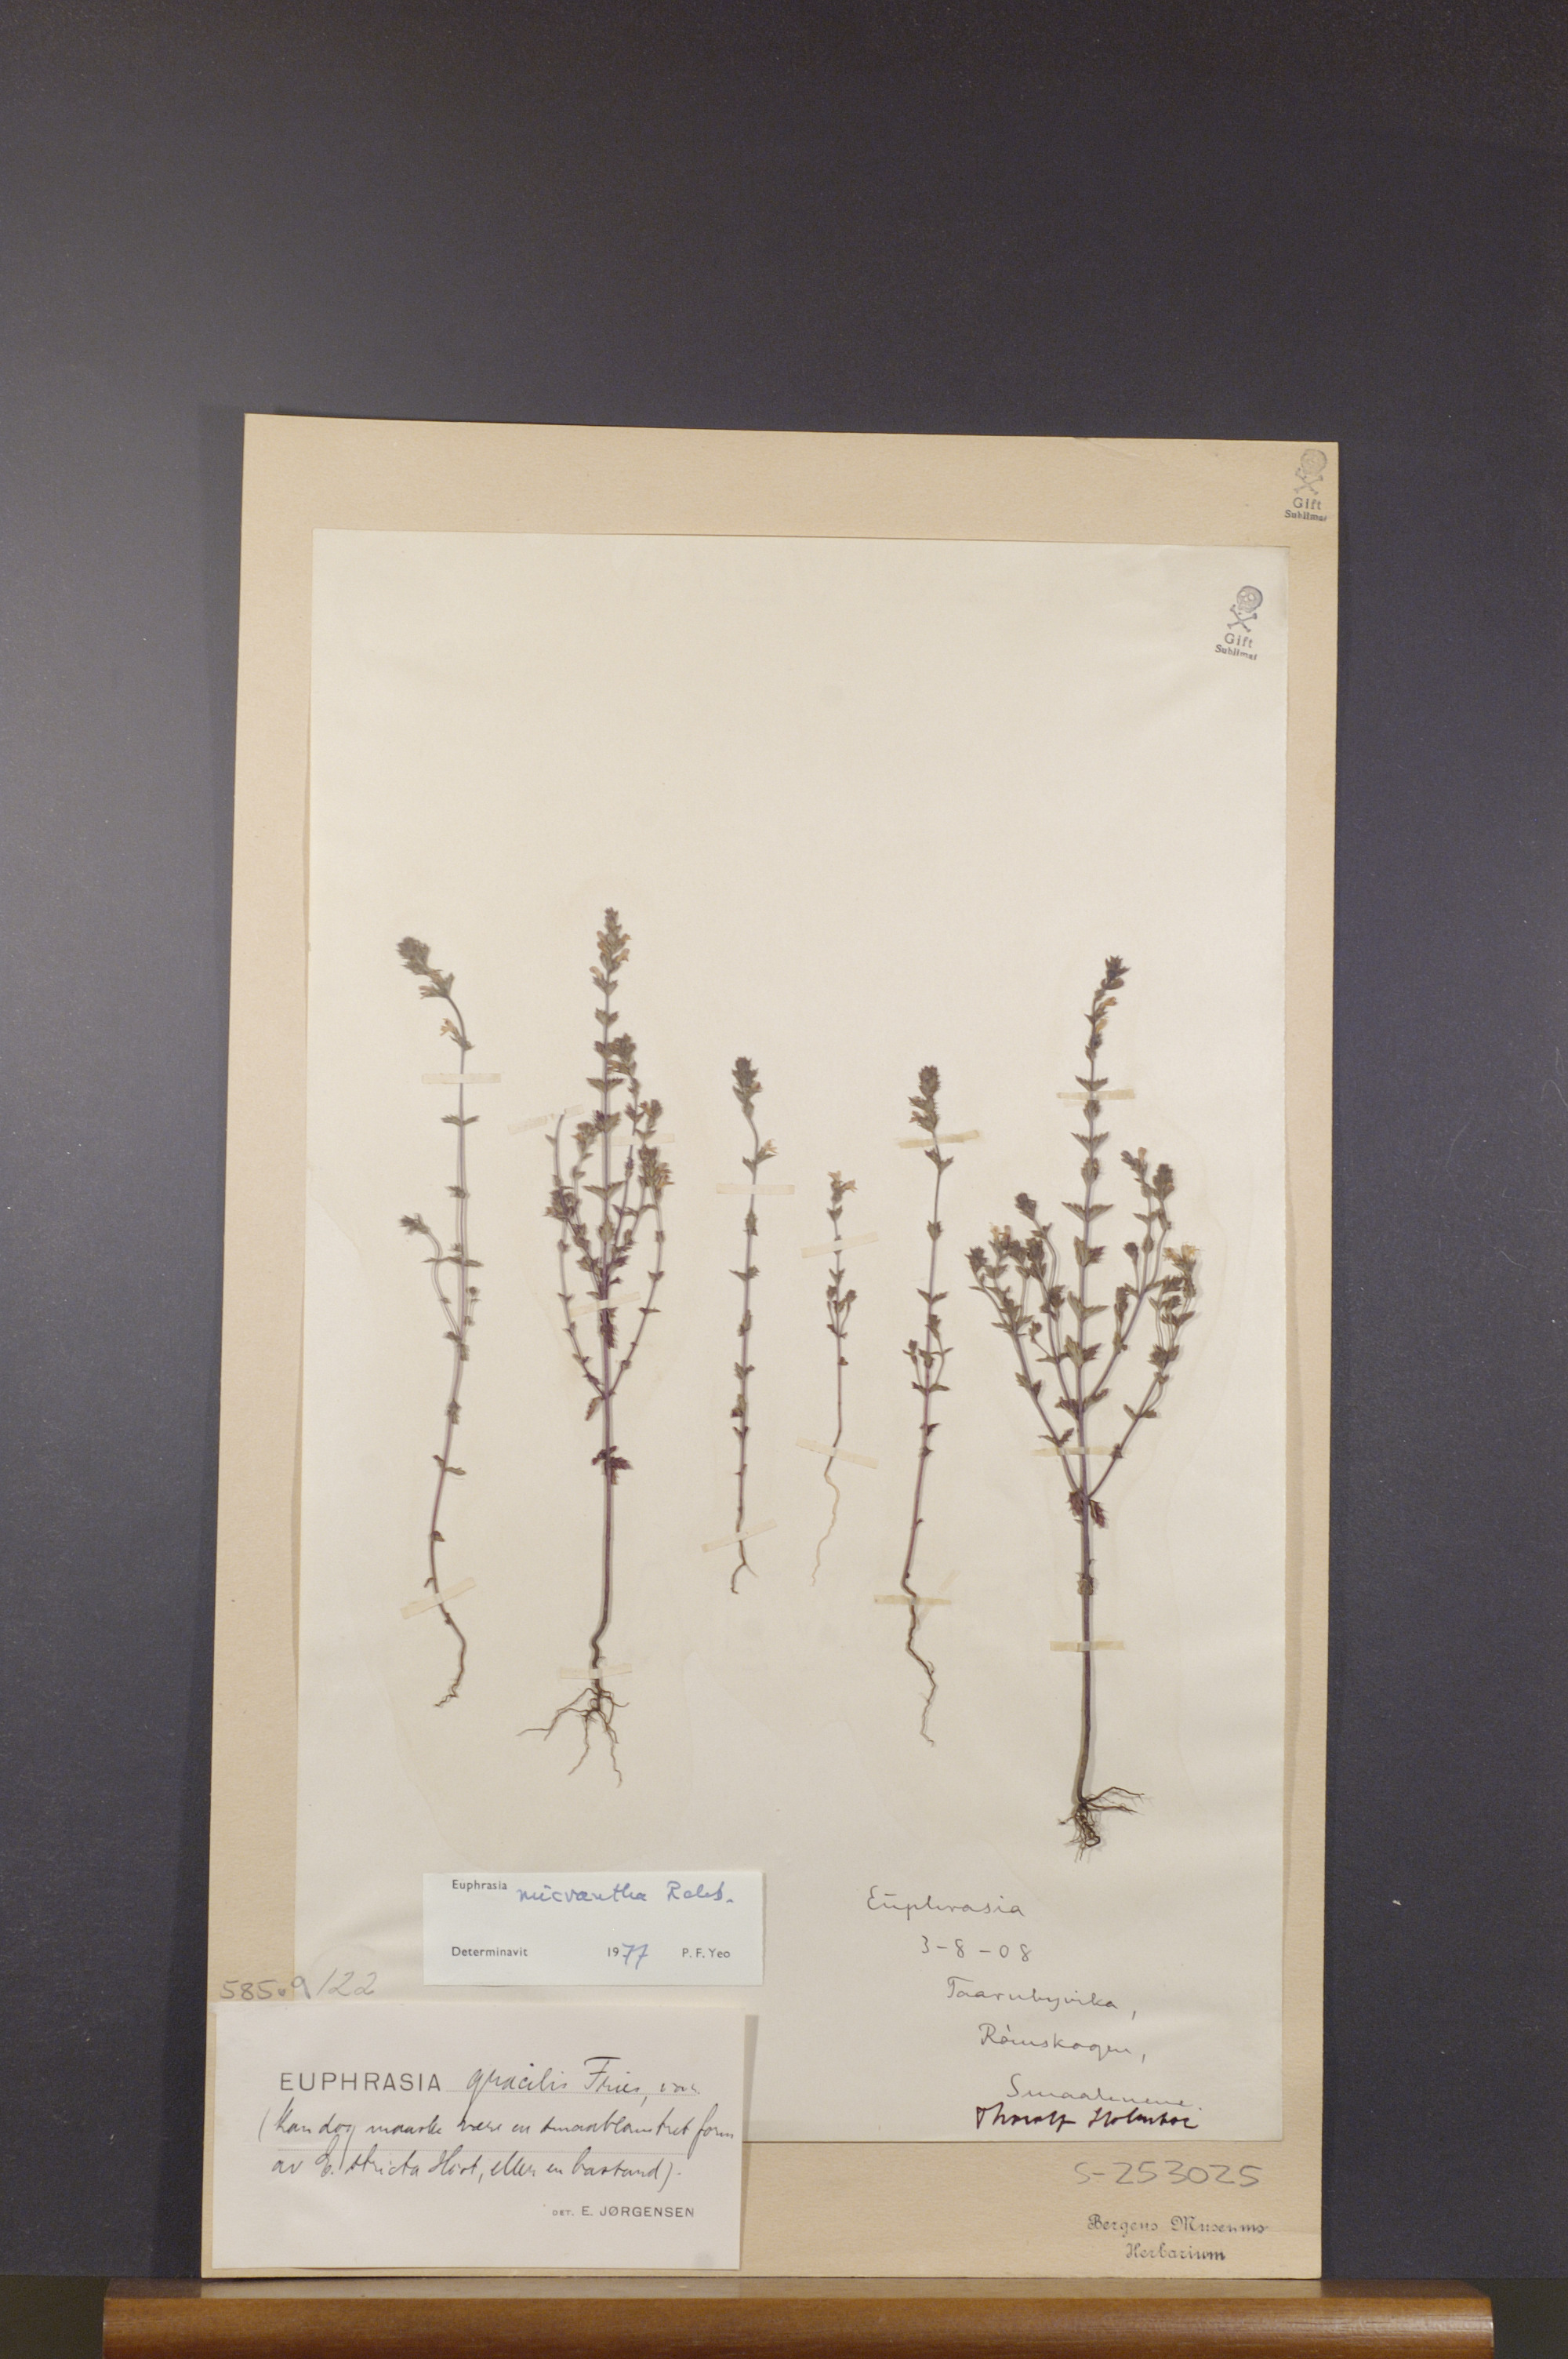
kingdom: Plantae
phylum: Tracheophyta
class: Magnoliopsida
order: Lamiales
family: Orobanchaceae
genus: Euphrasia
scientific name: Euphrasia micrantha
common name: Northern eyebright
